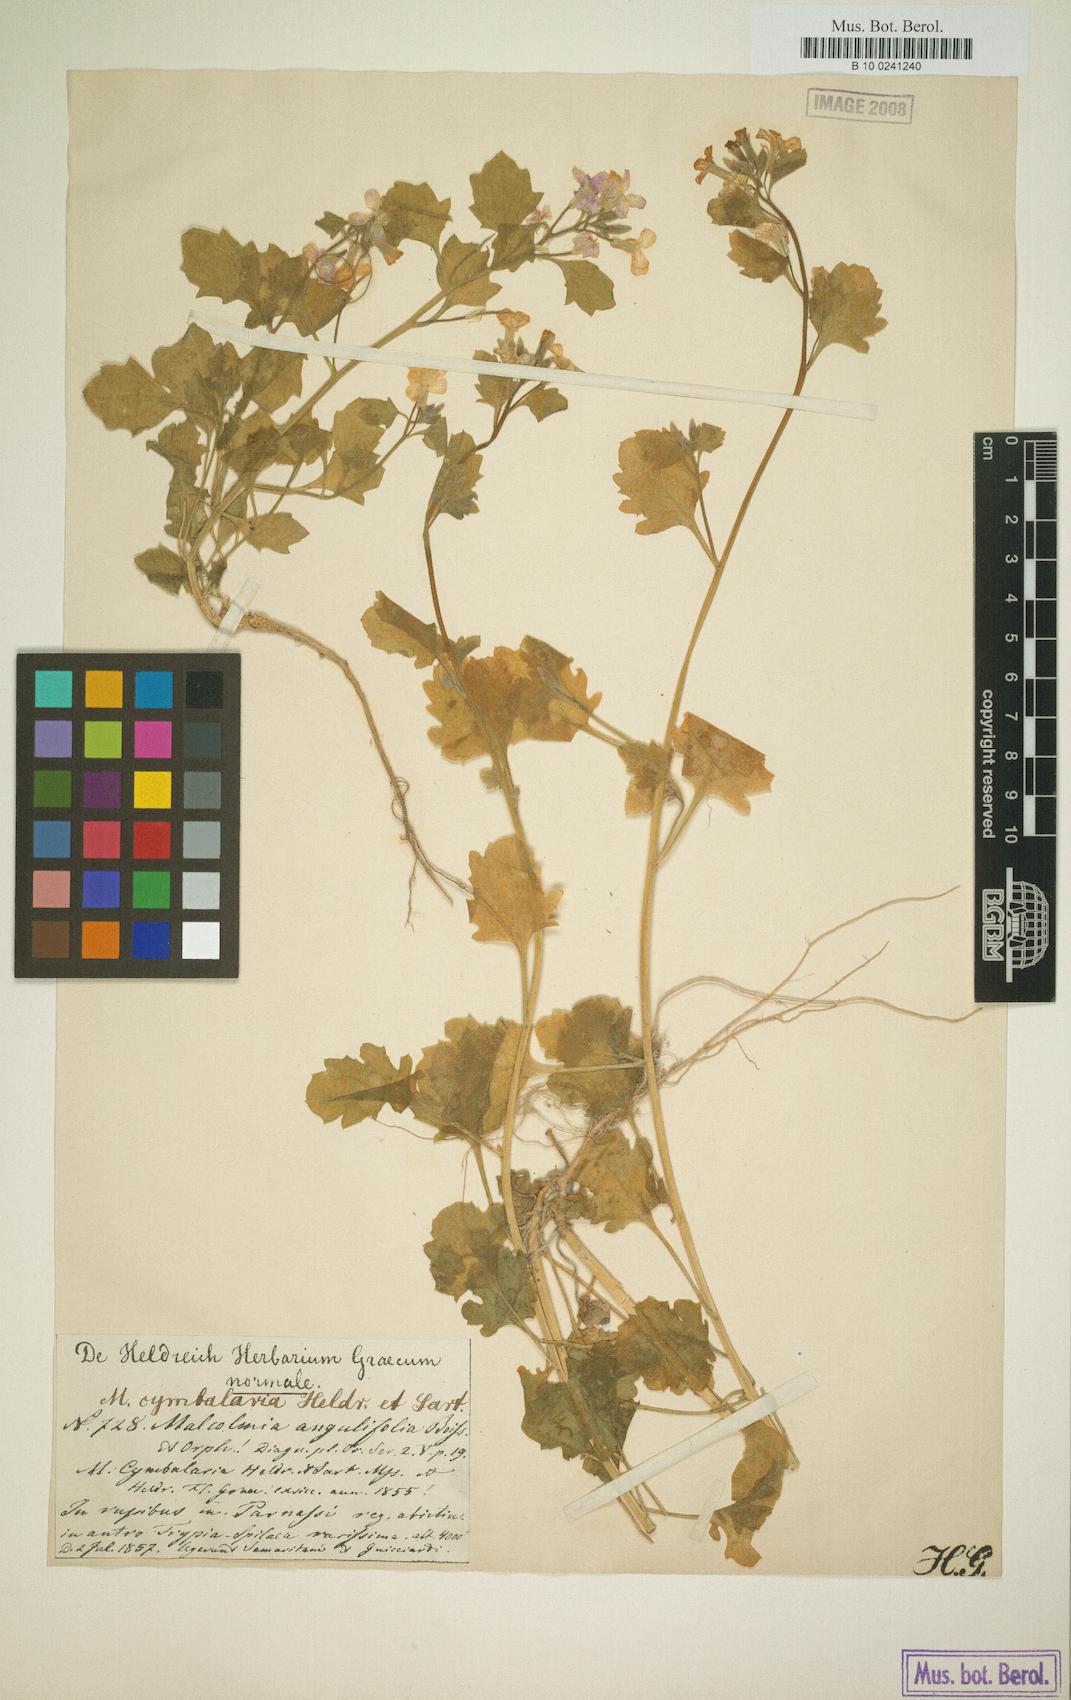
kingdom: Plantae
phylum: Tracheophyta
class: Magnoliopsida
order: Brassicales
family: Brassicaceae
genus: Malcolmia
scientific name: Malcolmia orsiniana
